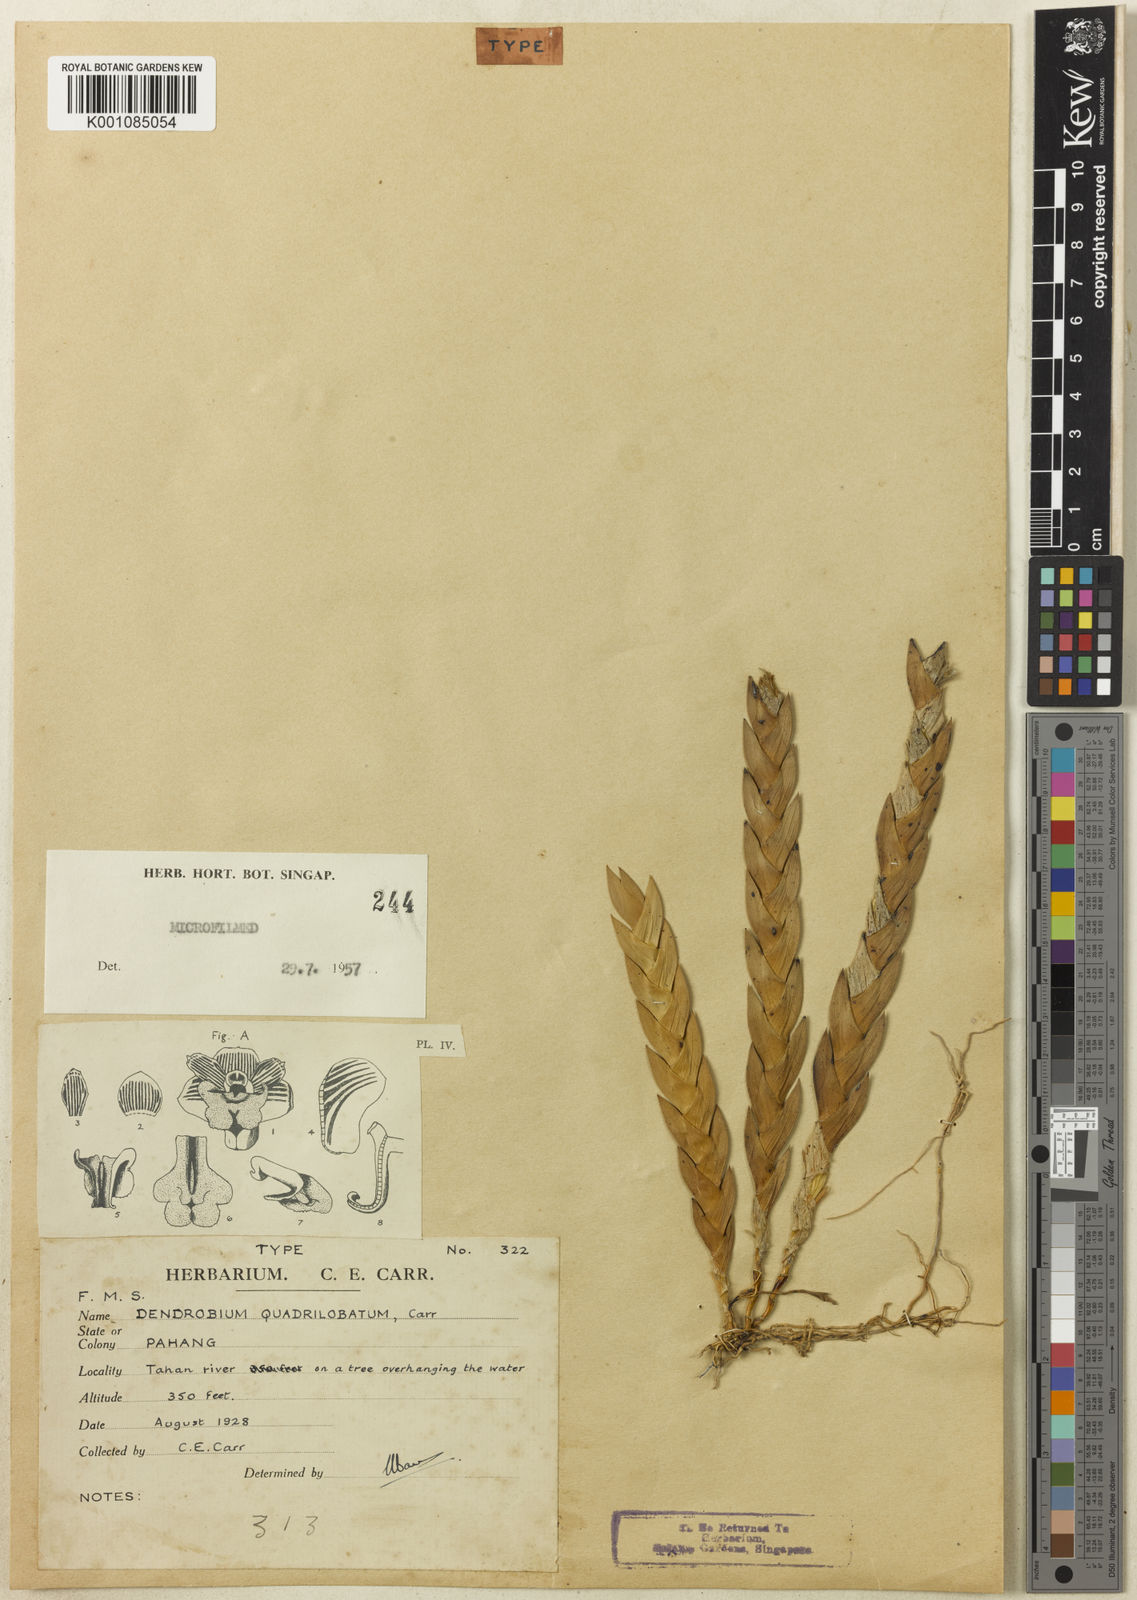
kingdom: Plantae
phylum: Tracheophyta
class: Liliopsida
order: Asparagales
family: Orchidaceae
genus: Dendrobium
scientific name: Dendrobium quadrilobatum
